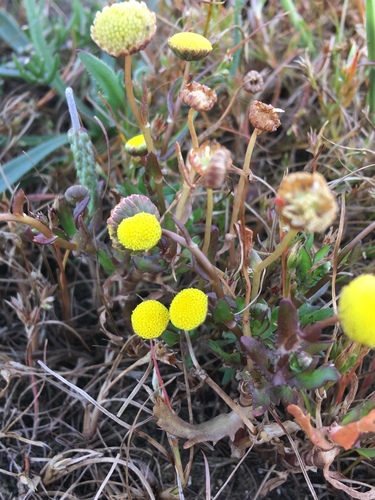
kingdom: Plantae
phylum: Tracheophyta
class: Magnoliopsida
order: Asterales
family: Asteraceae
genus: Cotula
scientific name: Cotula coronopifolia
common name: Buttonweed
